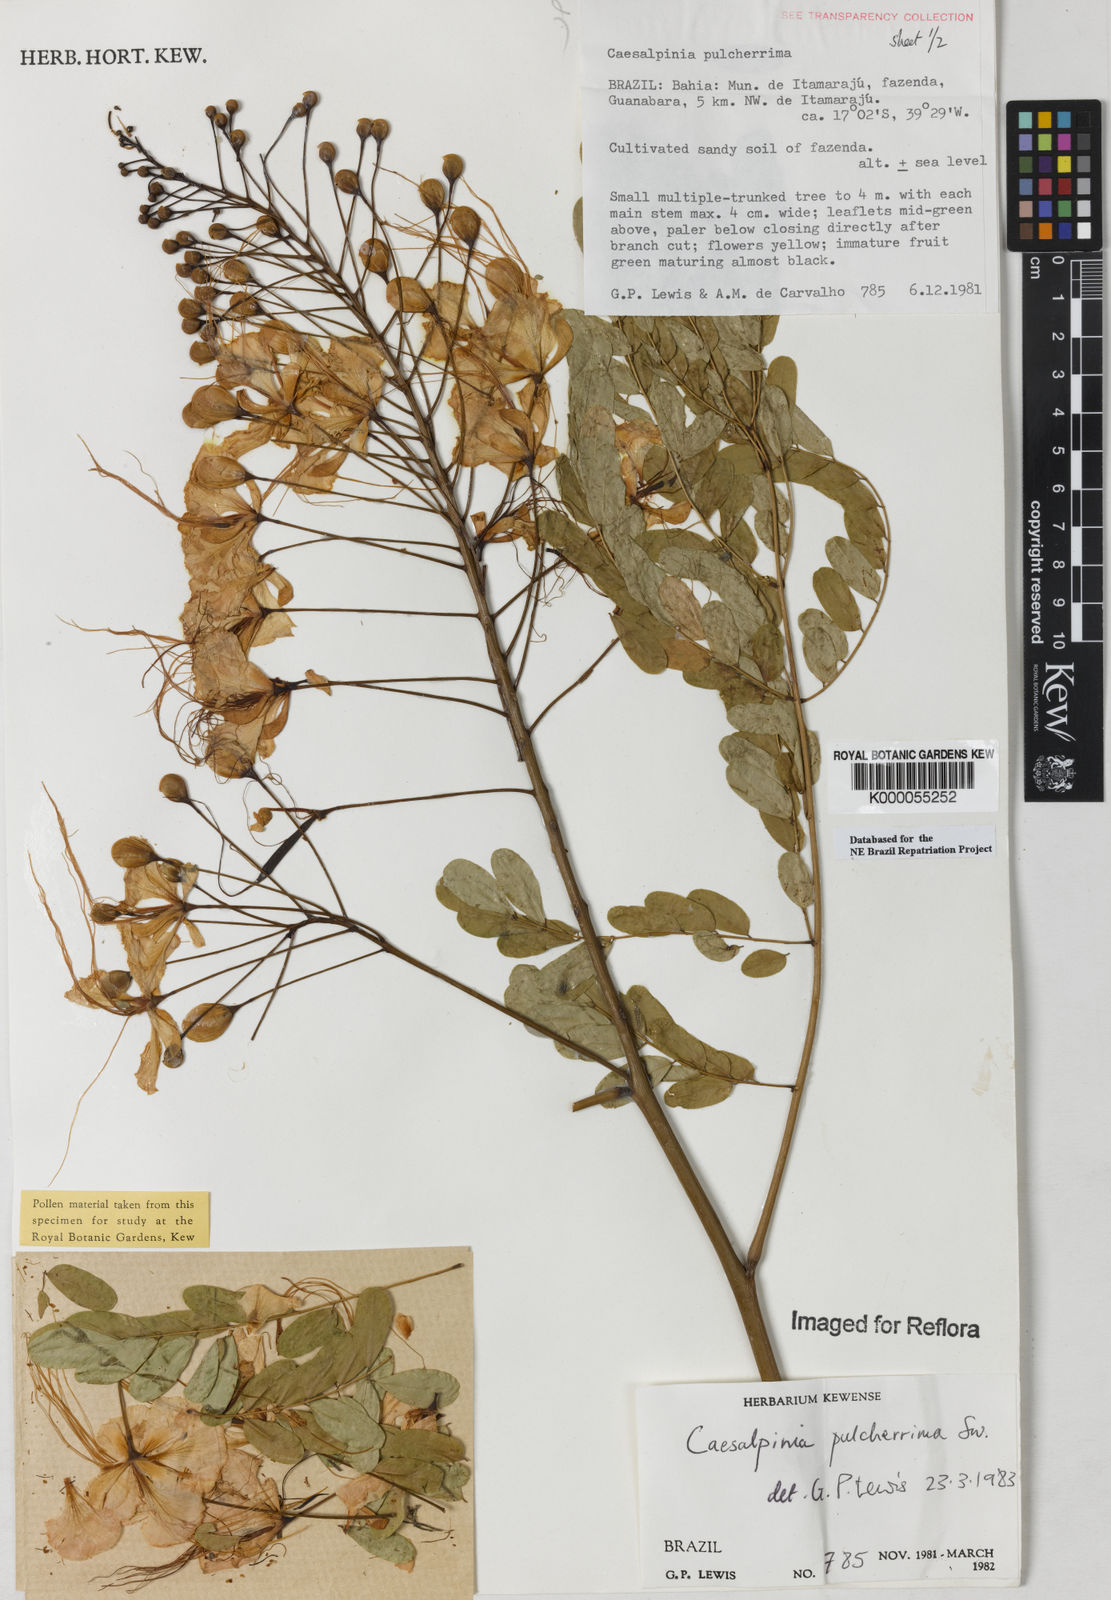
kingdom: Plantae
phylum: Tracheophyta
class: Magnoliopsida
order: Fabales
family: Fabaceae
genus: Caesalpinia
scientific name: Caesalpinia pulcherrima
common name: Pride-of-barbados
